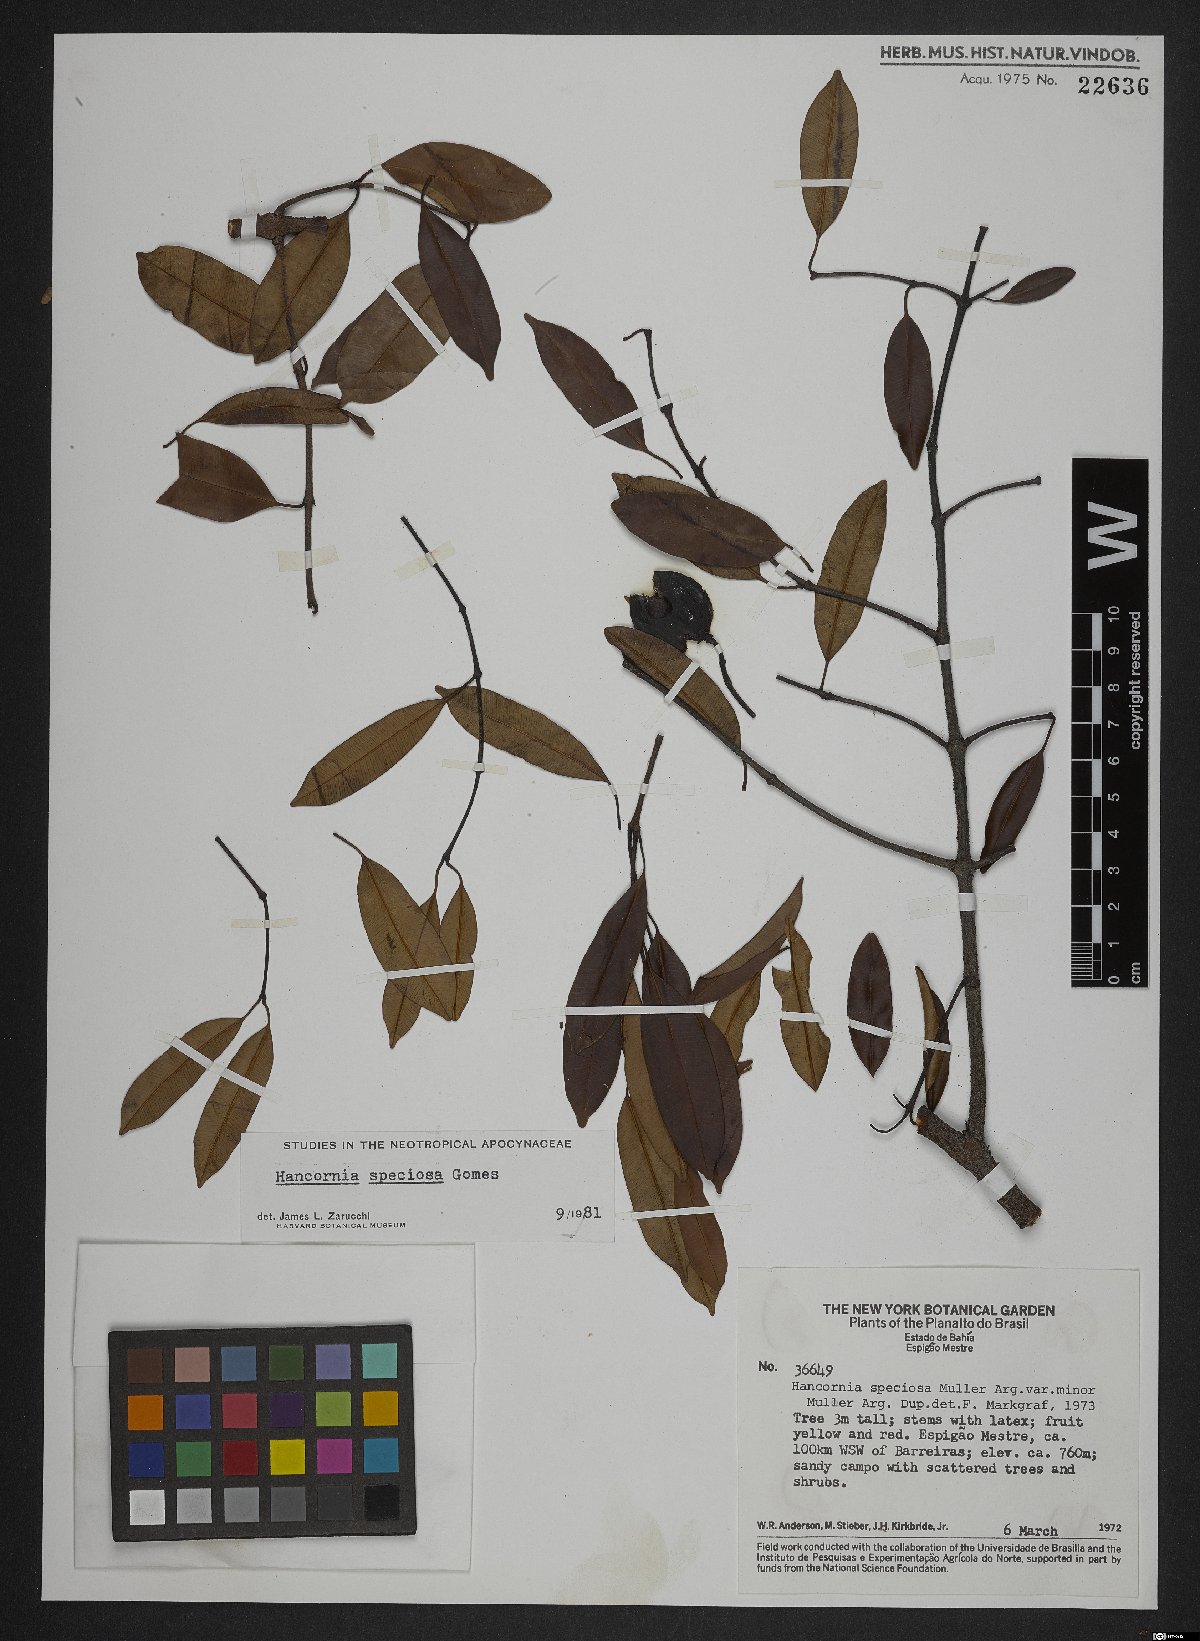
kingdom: Plantae
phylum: Tracheophyta
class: Magnoliopsida
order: Gentianales
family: Apocynaceae
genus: Hancornia
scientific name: Hancornia speciosa
